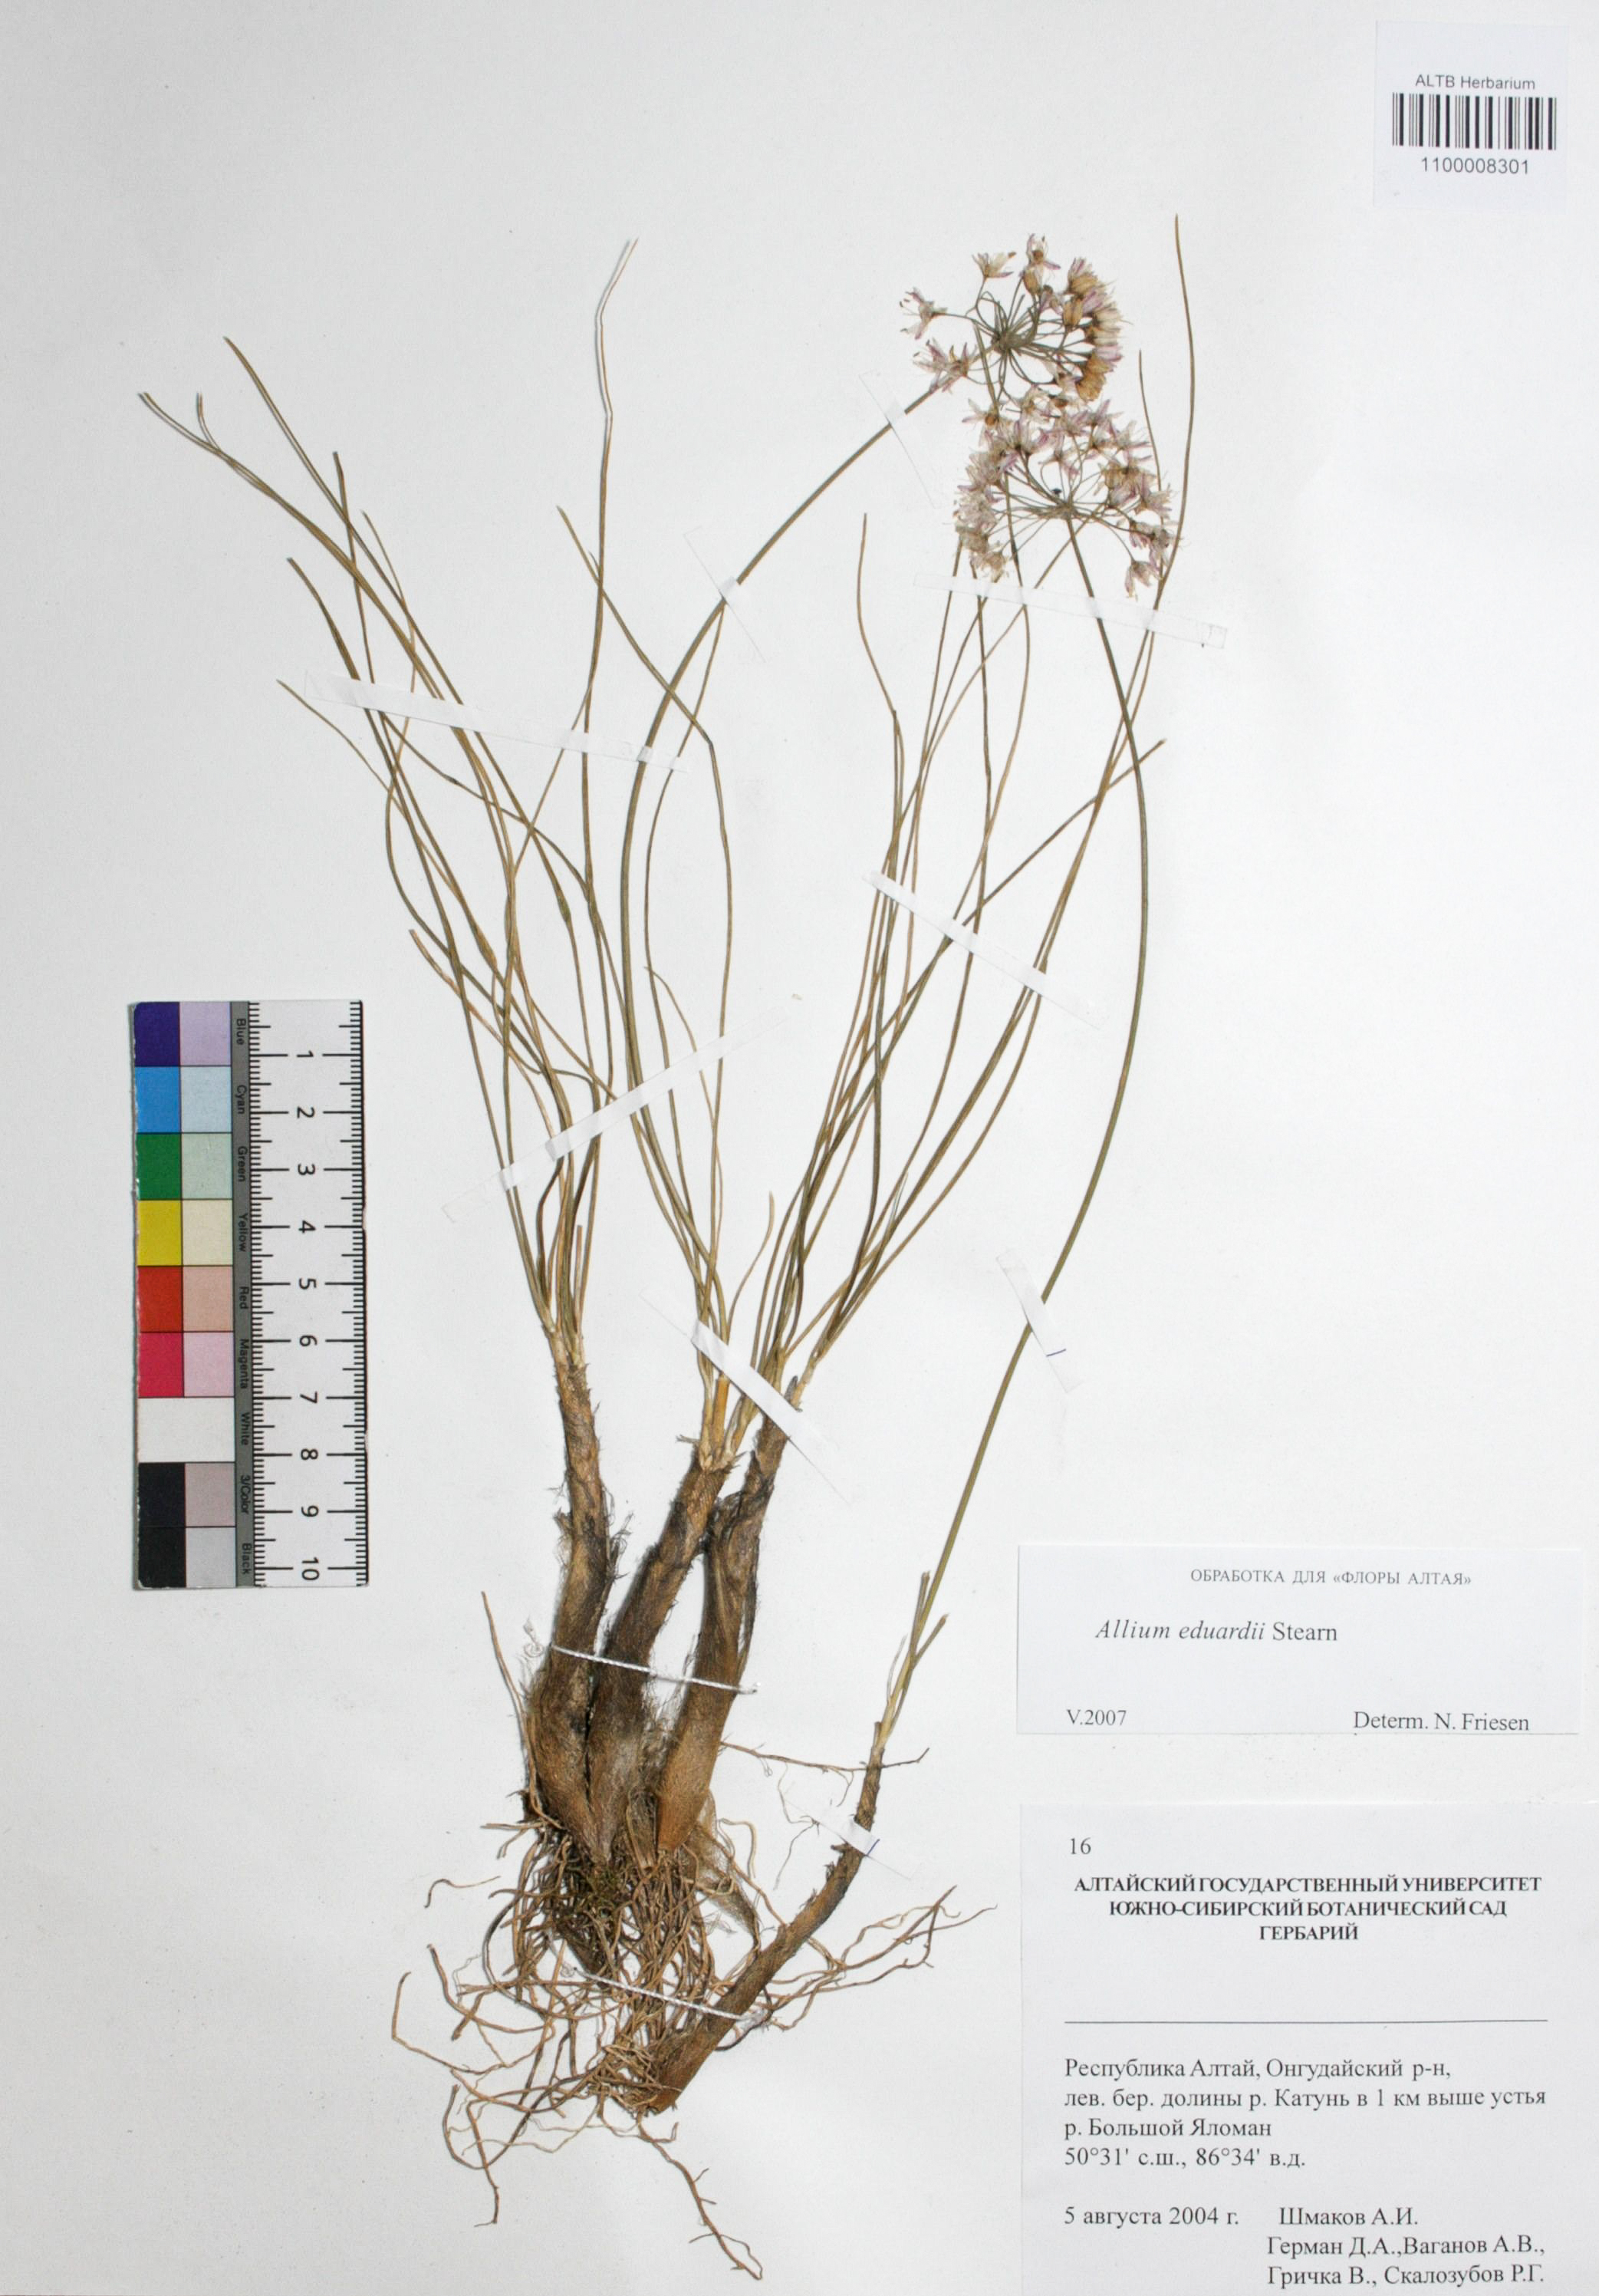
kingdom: Plantae
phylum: Tracheophyta
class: Liliopsida
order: Asparagales
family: Amaryllidaceae
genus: Allium
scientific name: Allium eduardi
